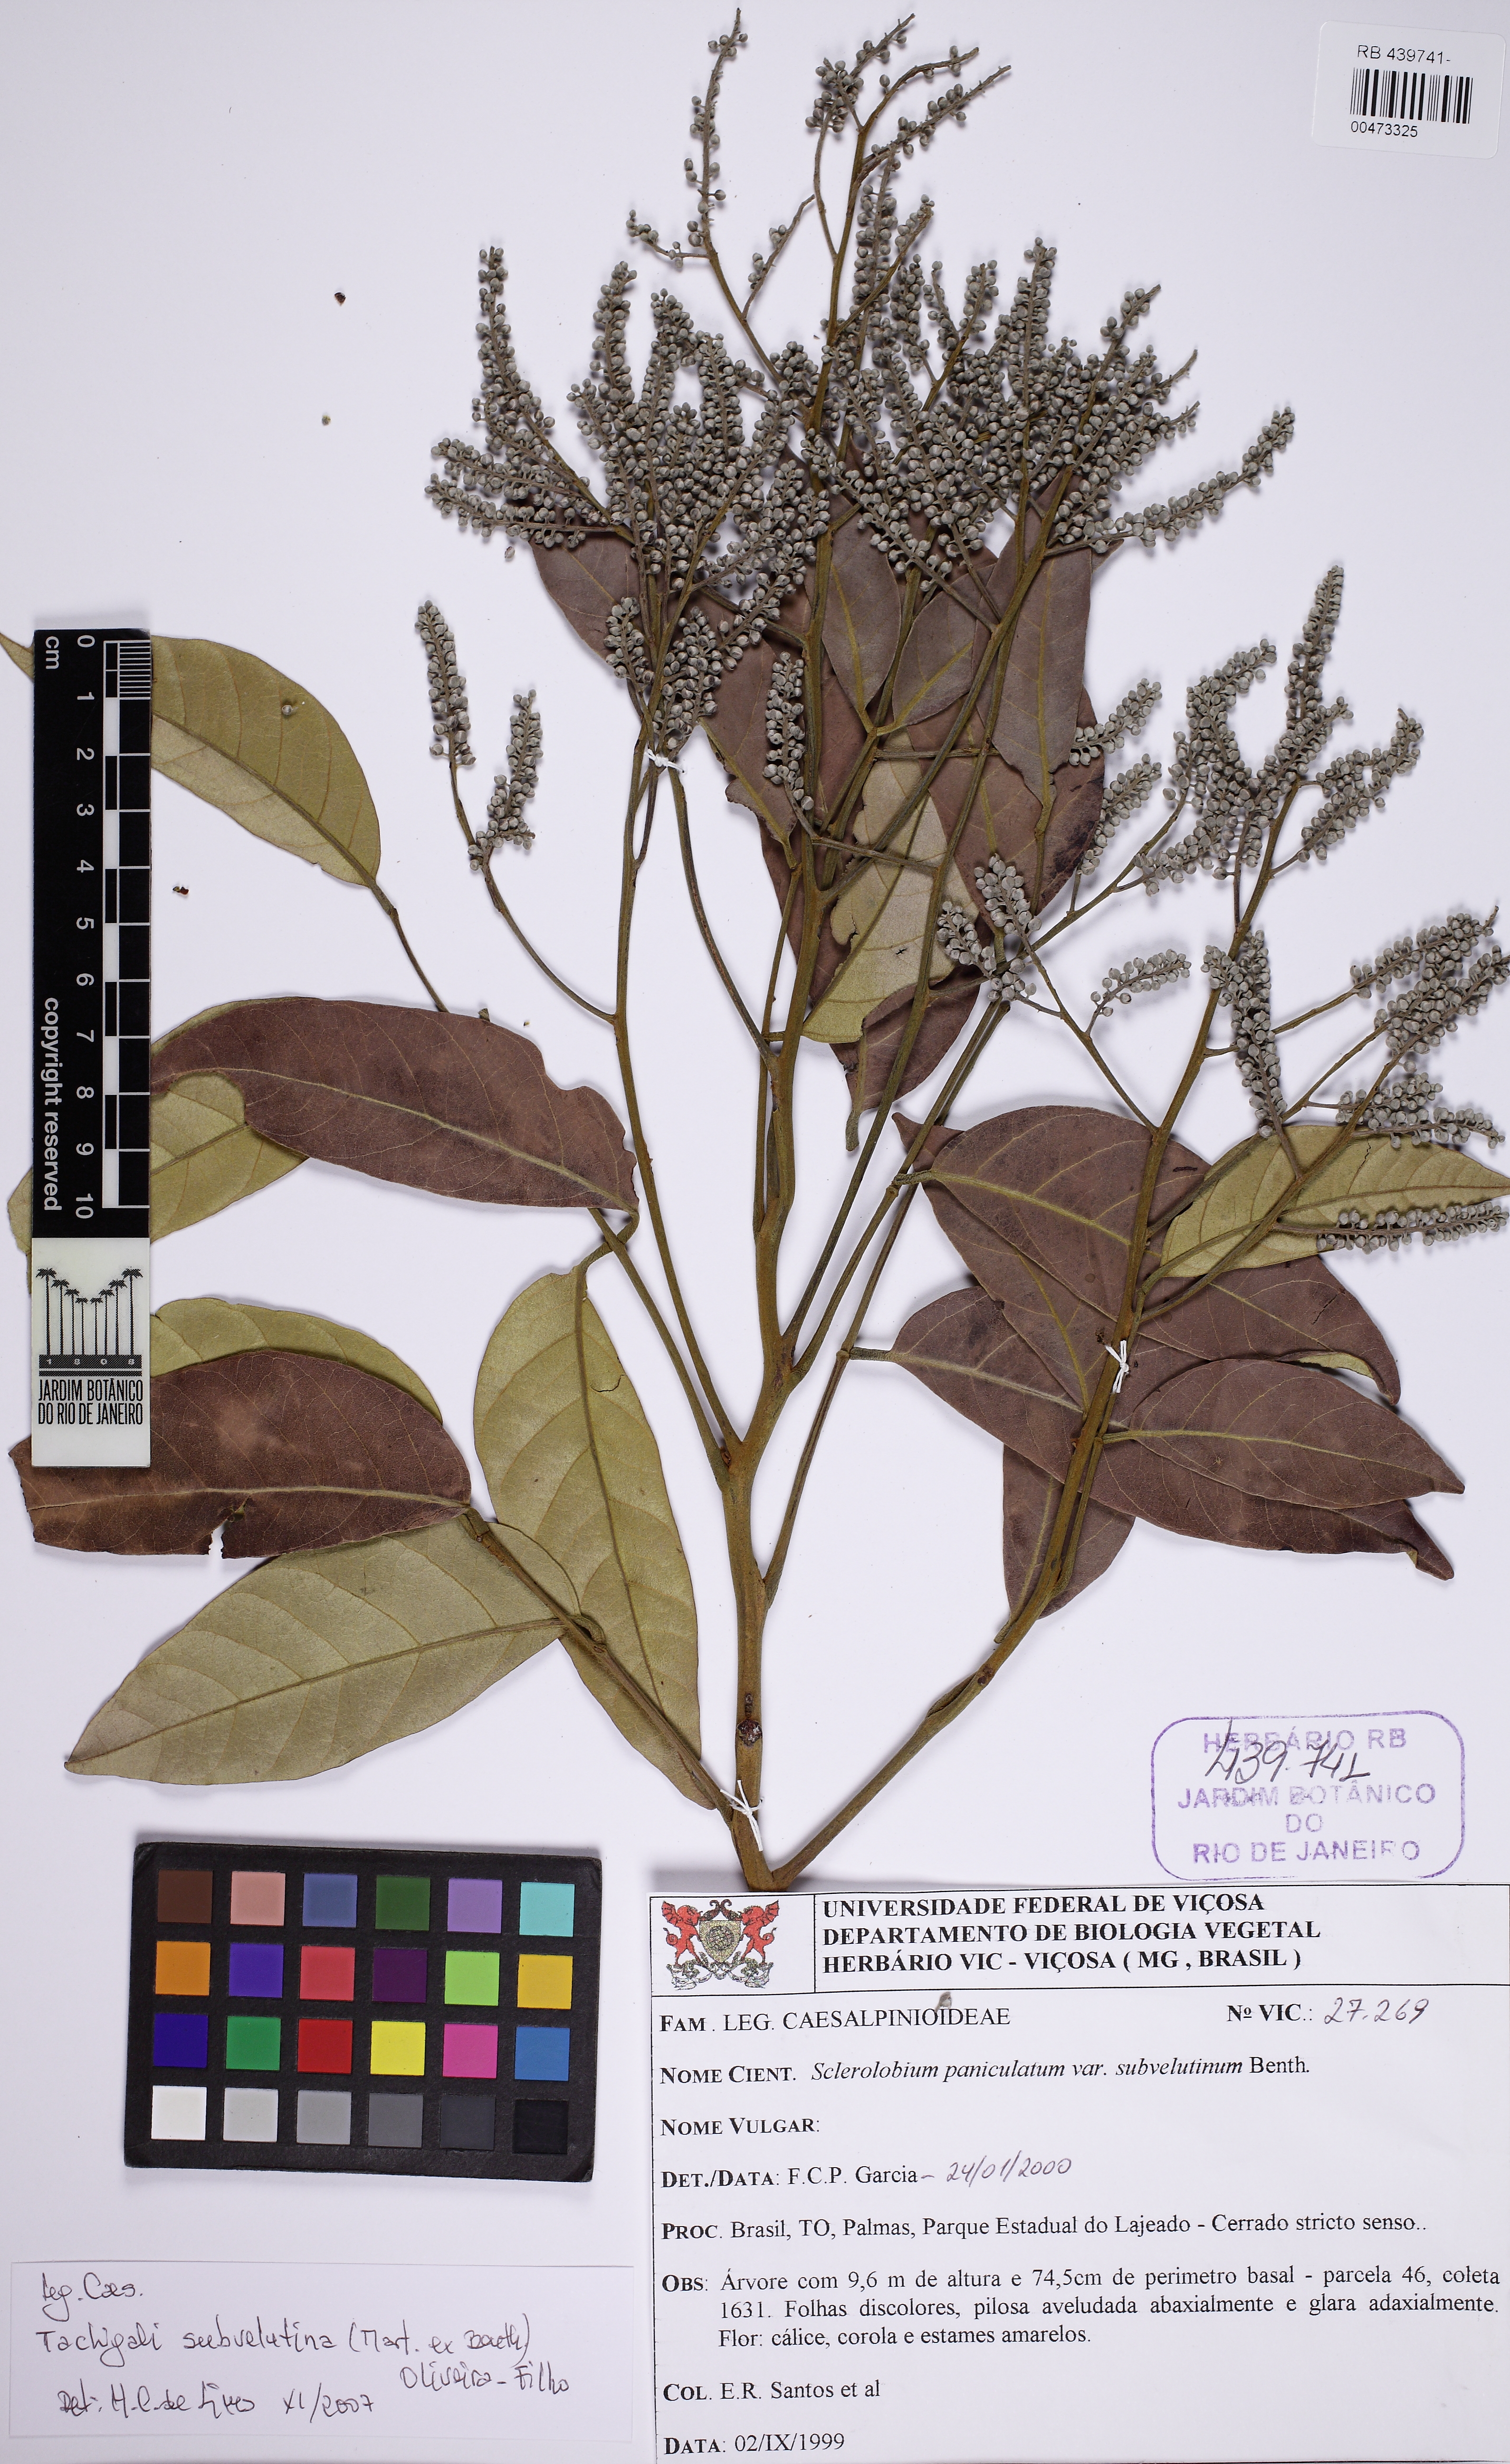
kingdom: Plantae
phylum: Tracheophyta
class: Magnoliopsida
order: Fabales
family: Fabaceae
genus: Tachigali
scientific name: Tachigali subvelutina
